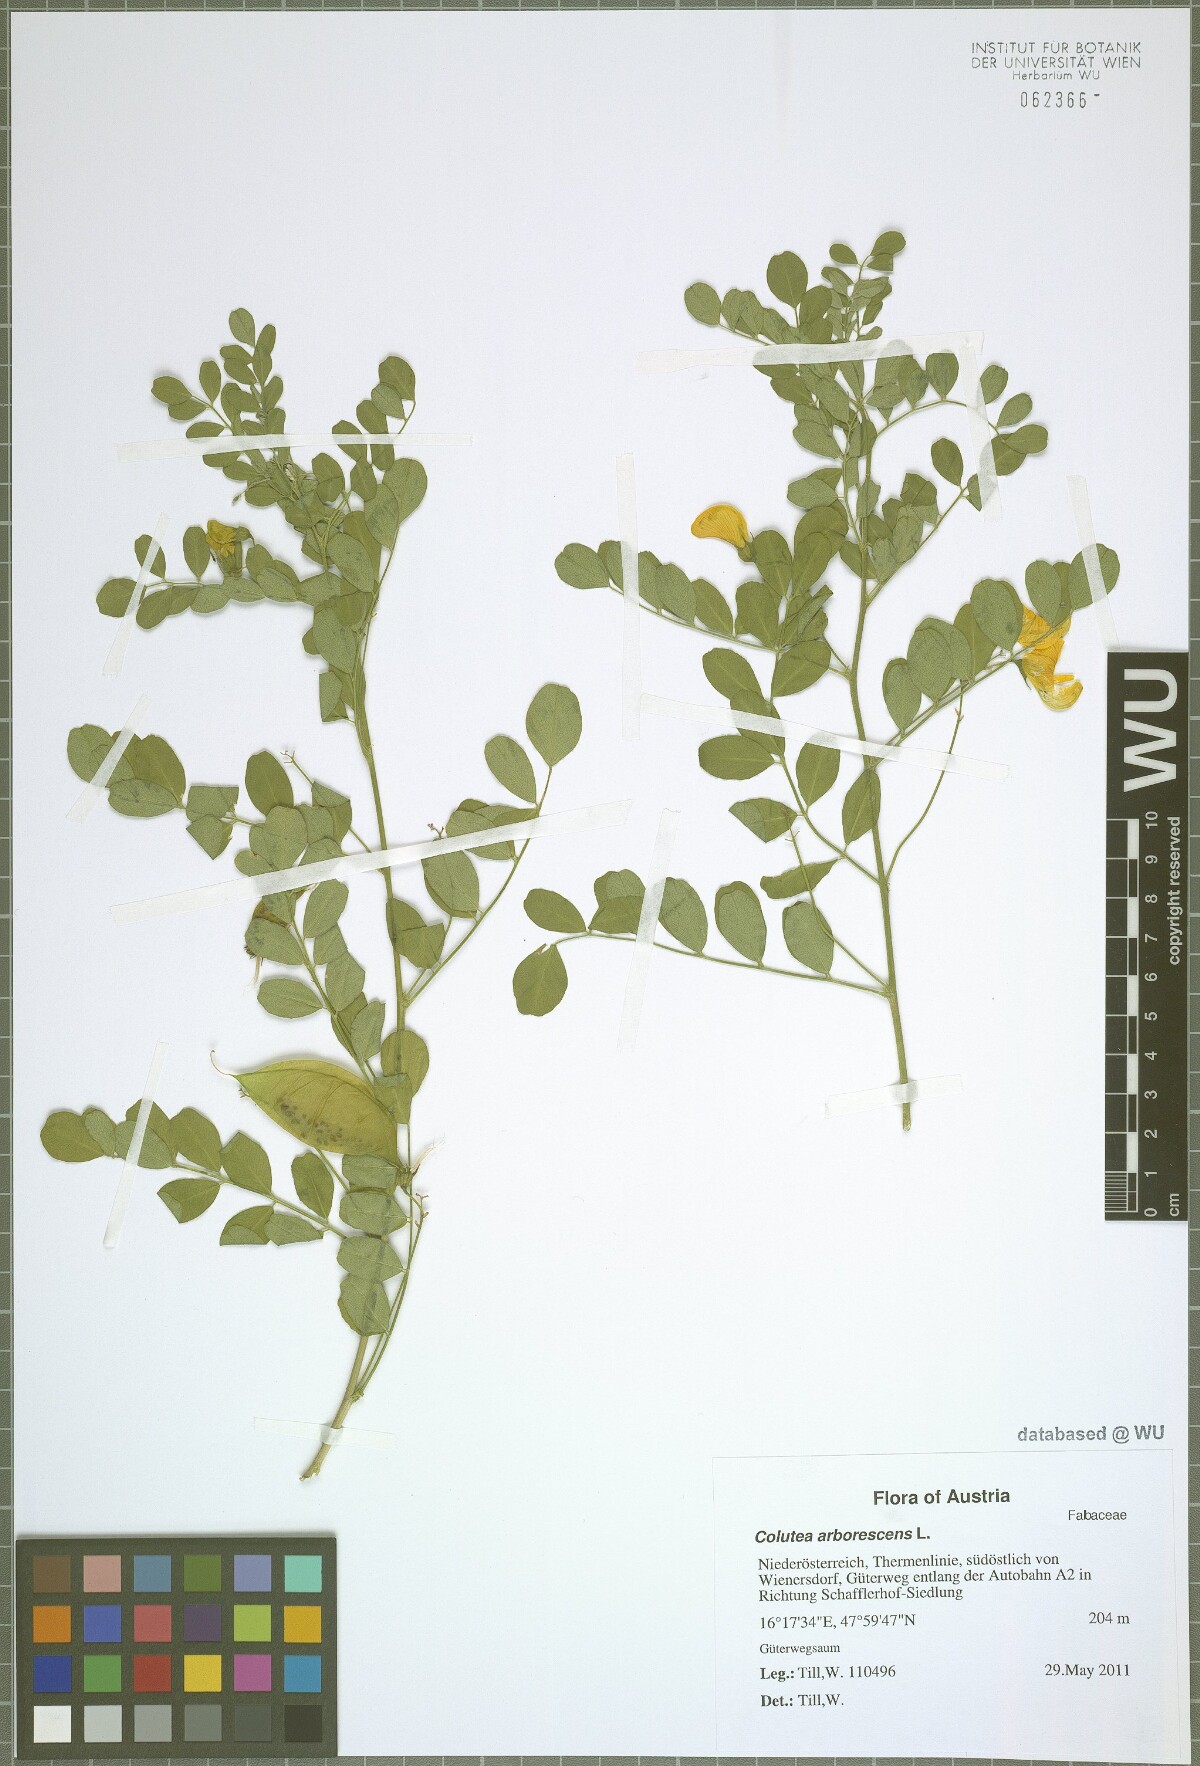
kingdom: Plantae
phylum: Tracheophyta
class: Magnoliopsida
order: Fabales
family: Fabaceae
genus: Colutea
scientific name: Colutea arborescens
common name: Bladder-senna
